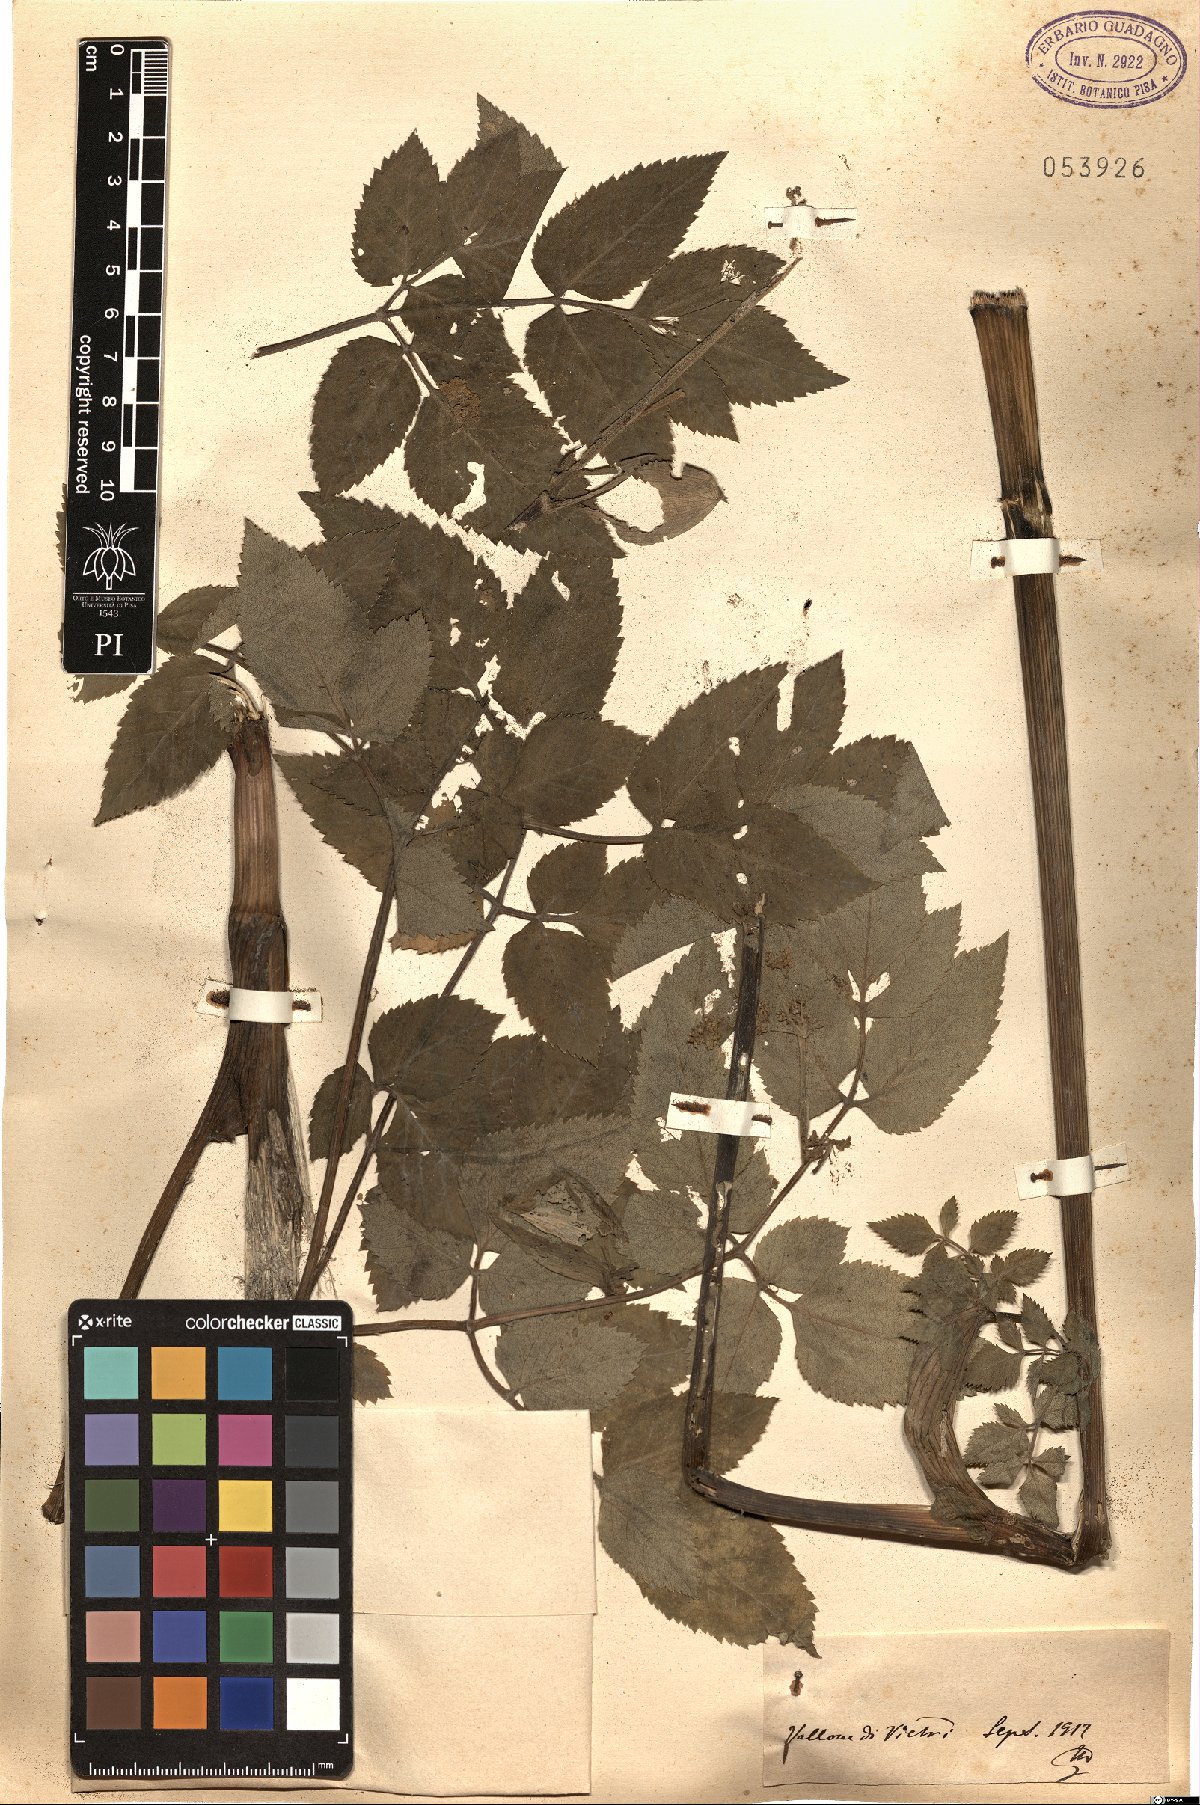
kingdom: Plantae
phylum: Tracheophyta
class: Magnoliopsida
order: Apiales
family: Apiaceae
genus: Angelica
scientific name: Angelica
